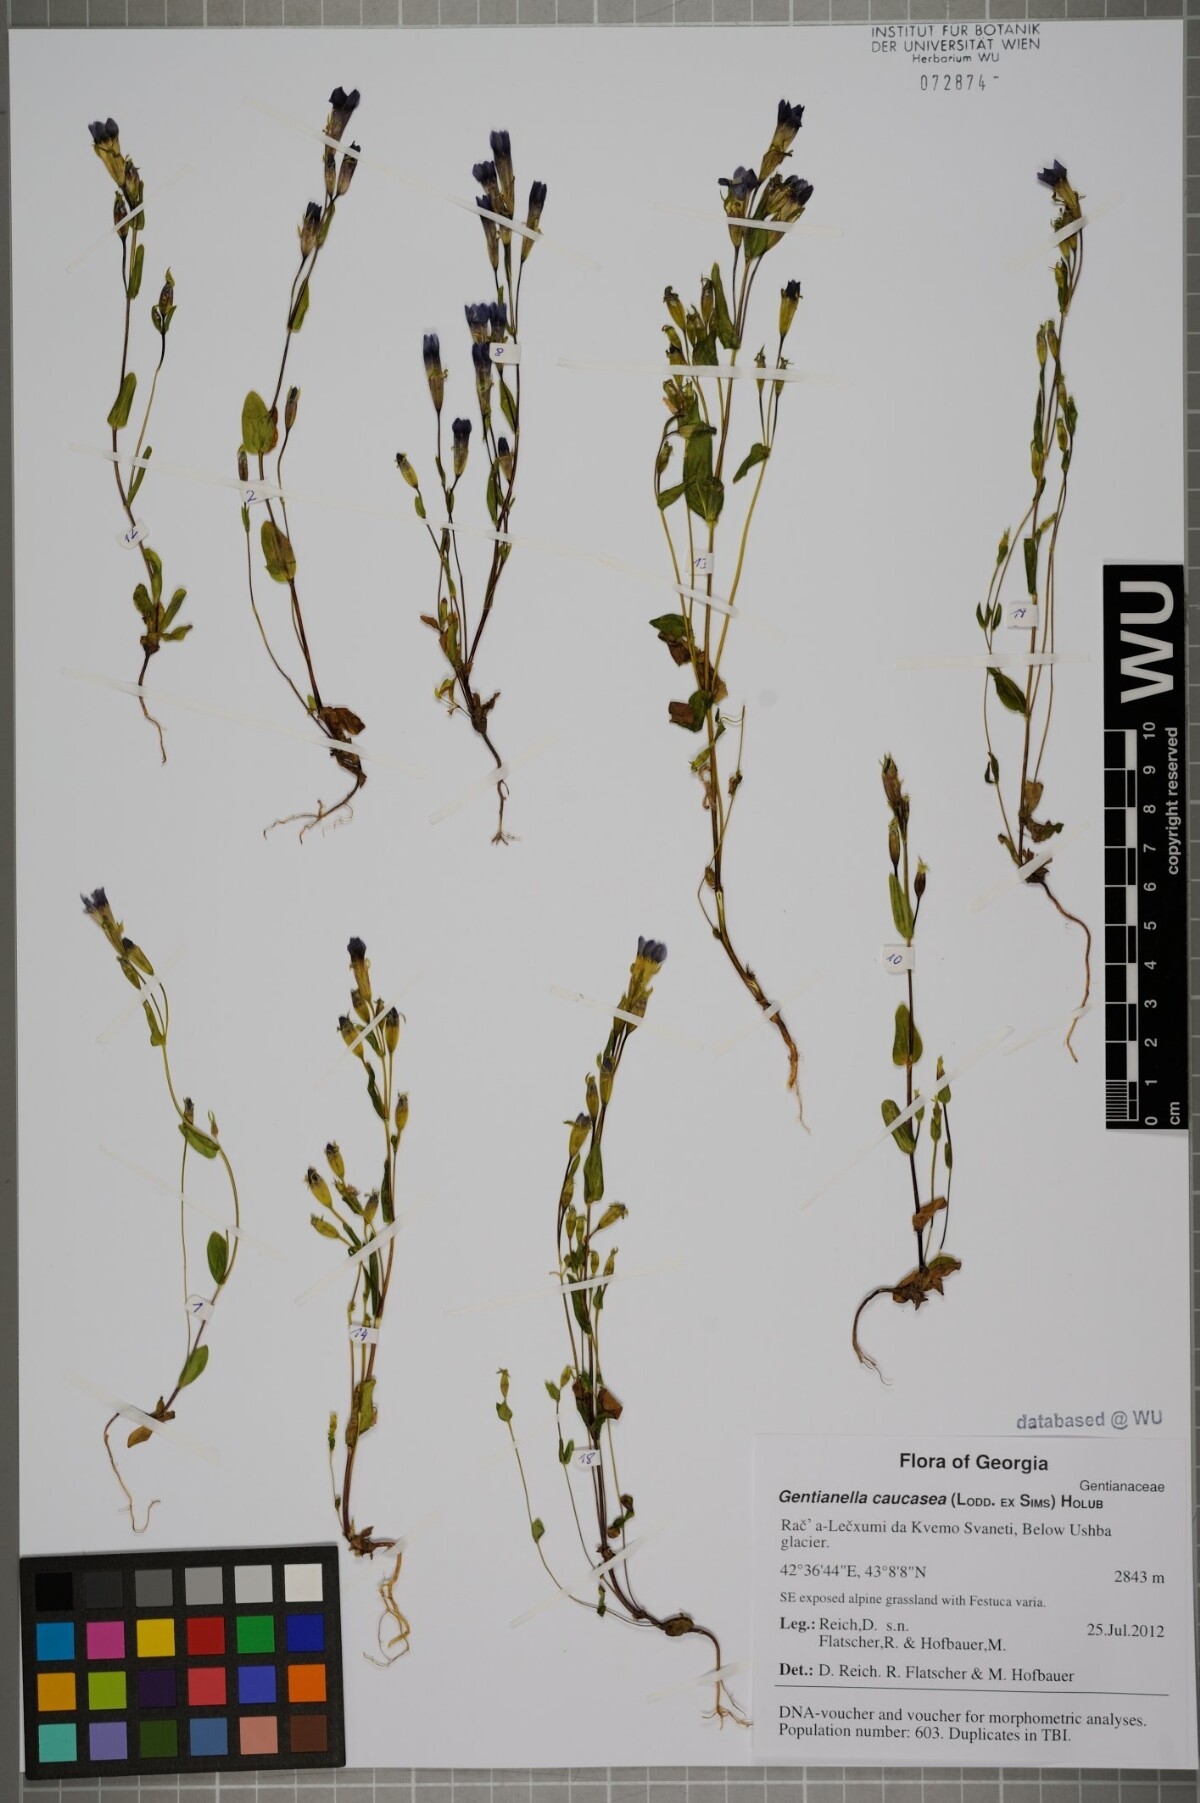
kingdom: Plantae
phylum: Tracheophyta
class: Magnoliopsida
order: Gentianales
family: Gentianaceae
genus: Gentianella
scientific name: Gentianella caucasea
